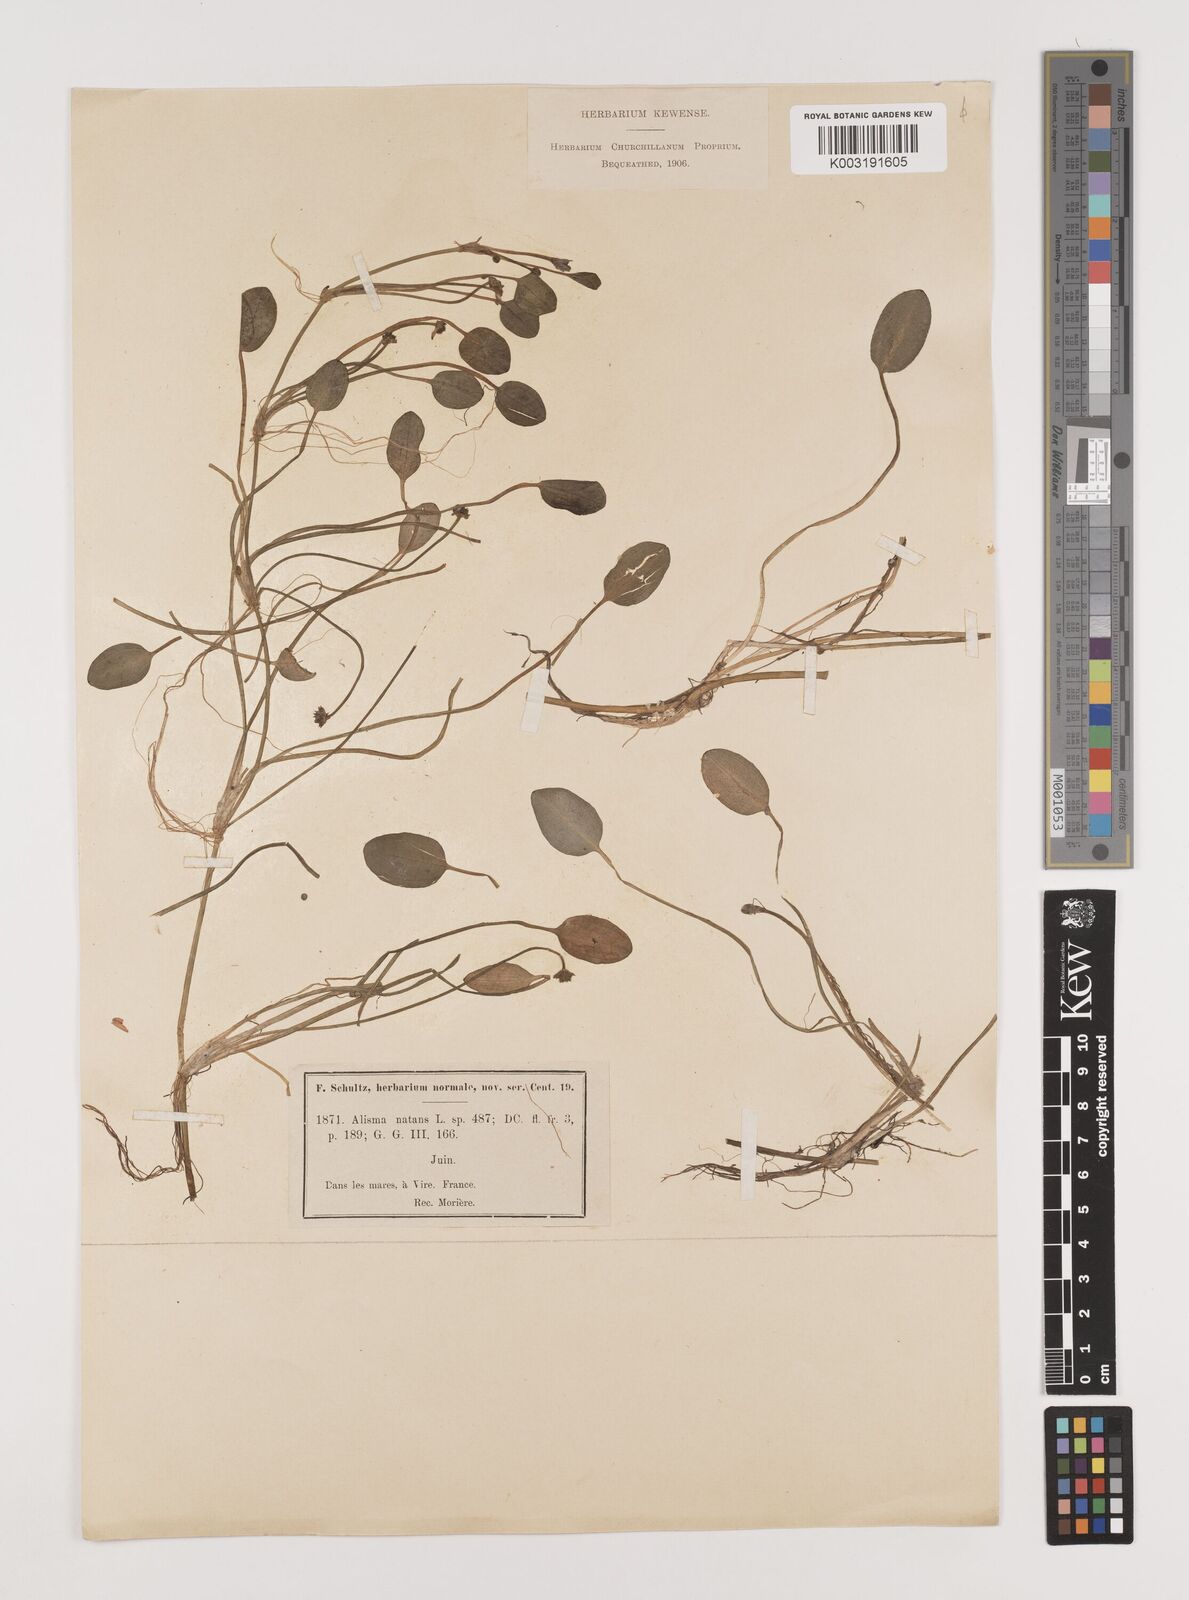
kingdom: Plantae
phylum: Tracheophyta
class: Liliopsida
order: Alismatales
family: Alismataceae
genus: Luronium
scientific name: Luronium natans
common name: Floating water-plantain
